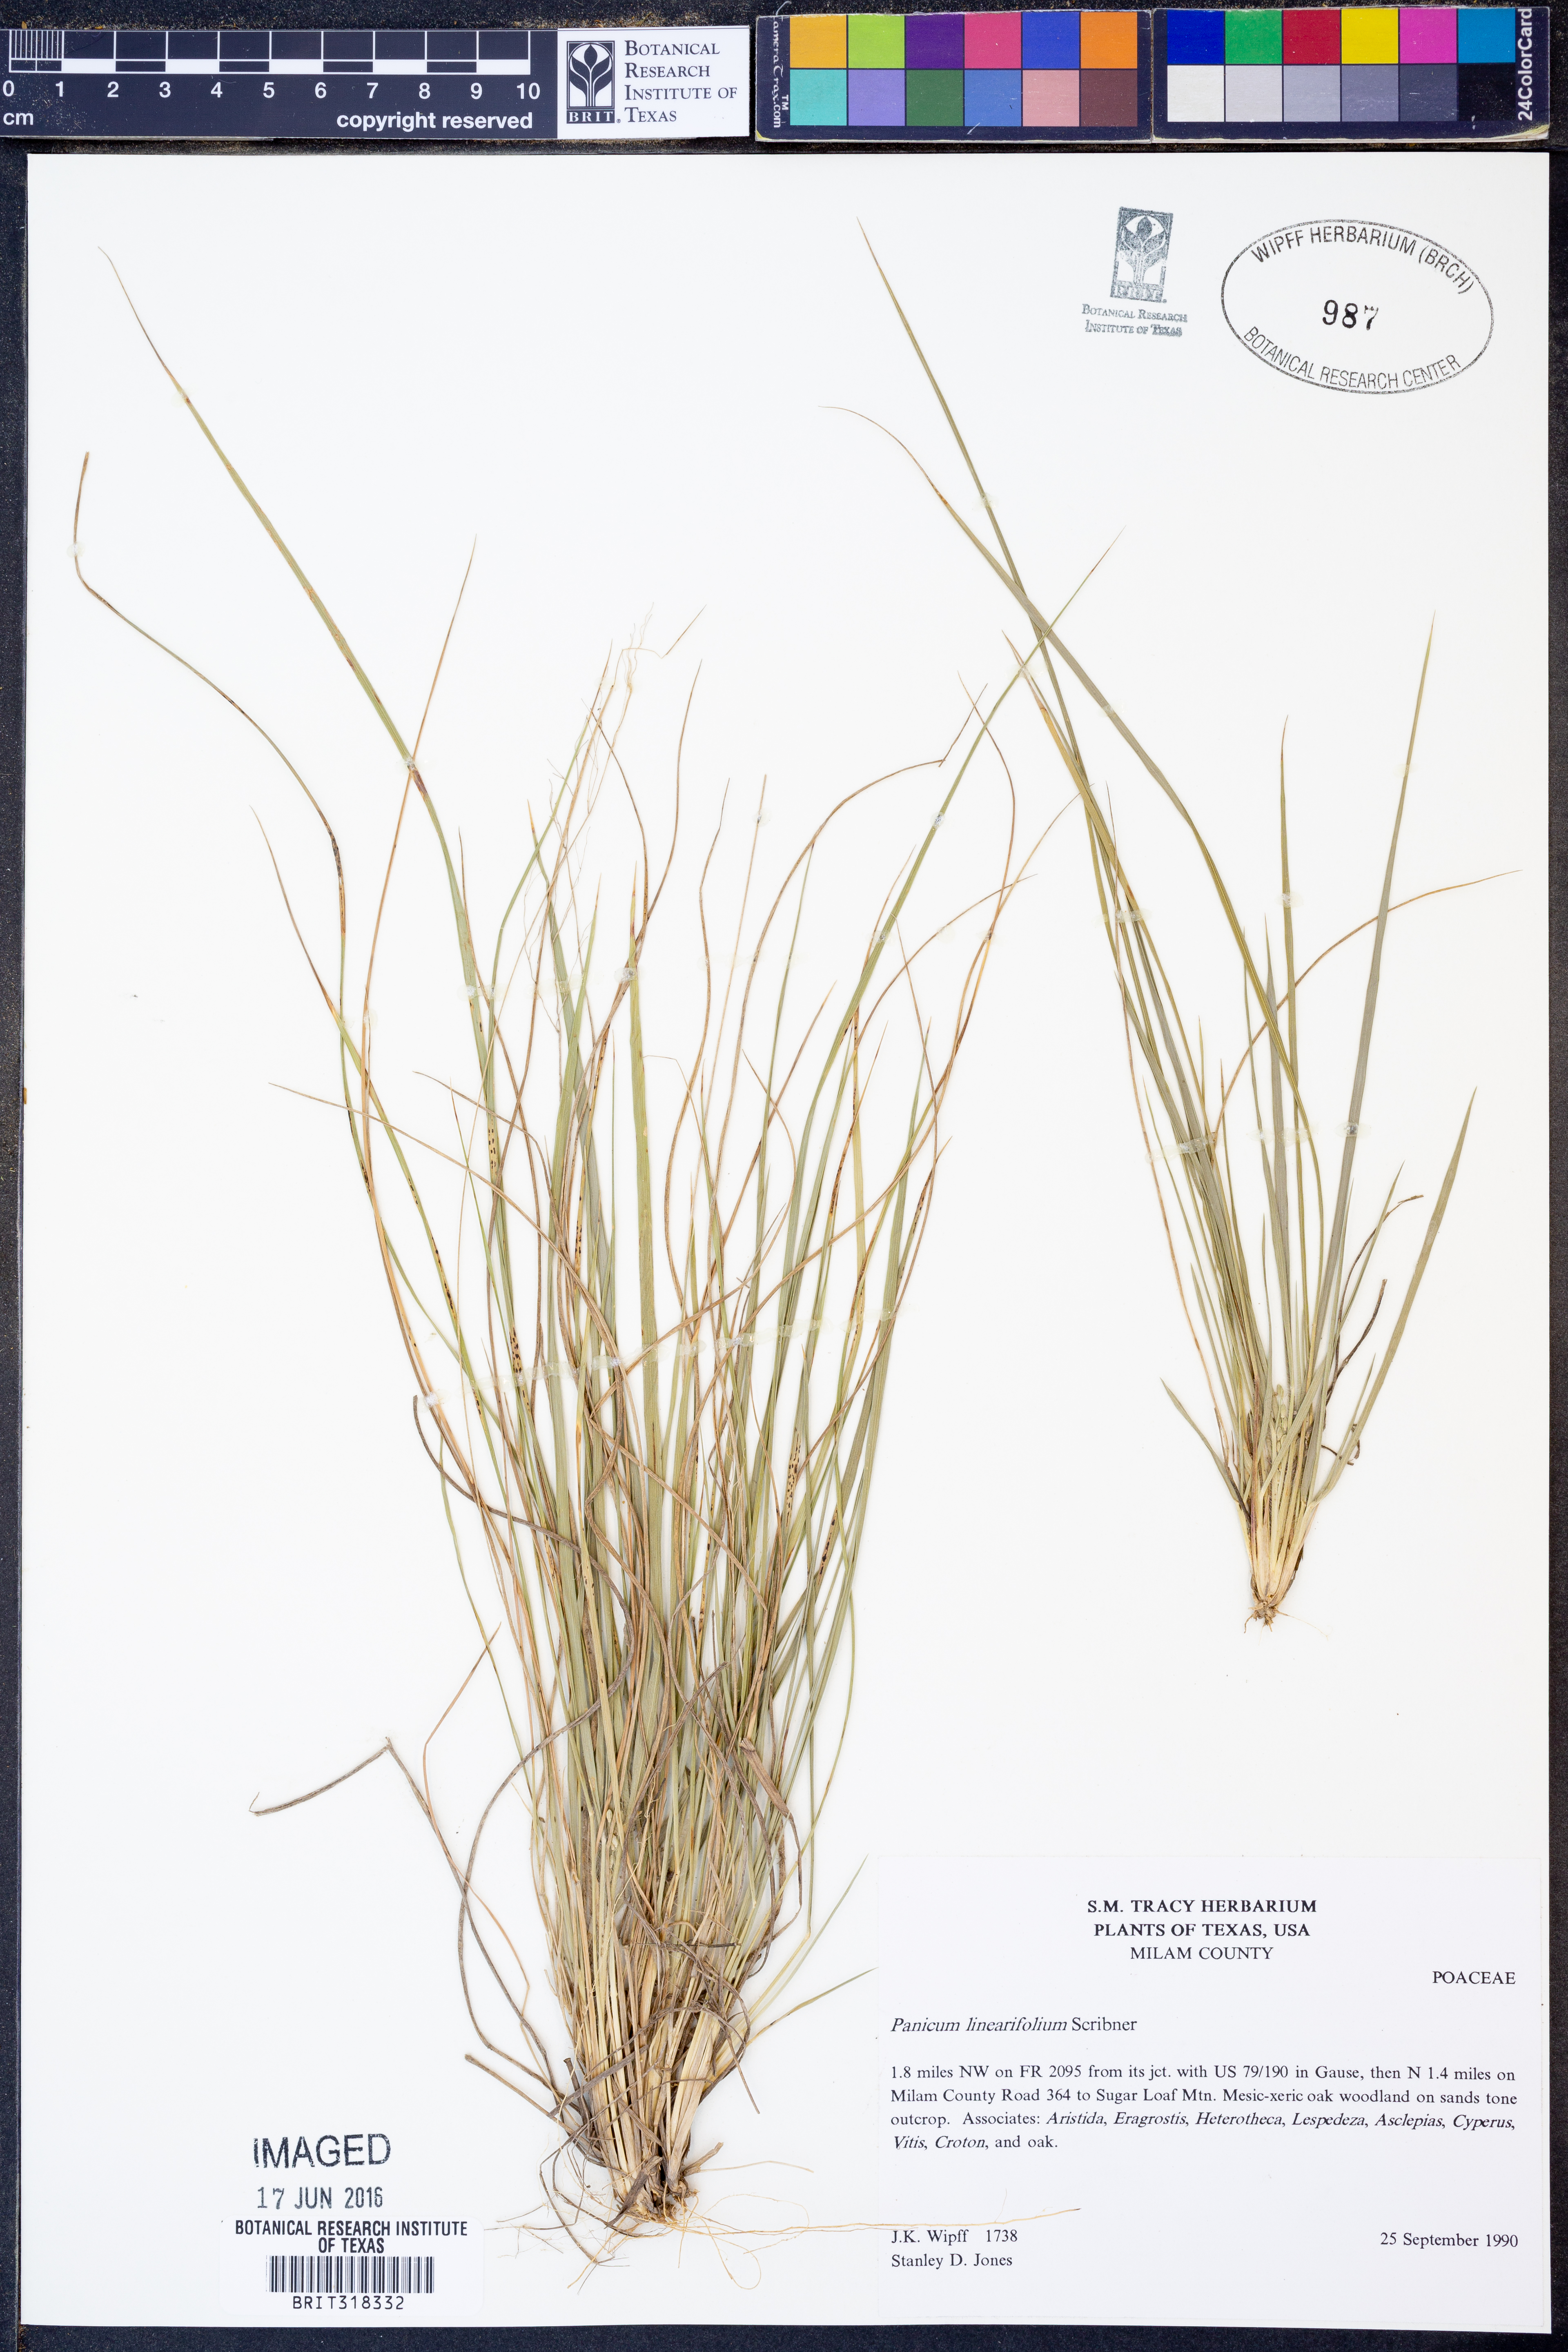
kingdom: Plantae
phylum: Tracheophyta
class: Liliopsida
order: Poales
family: Poaceae
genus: Dichanthelium
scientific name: Dichanthelium linearifolium
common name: Linear-leaved panicgrass
